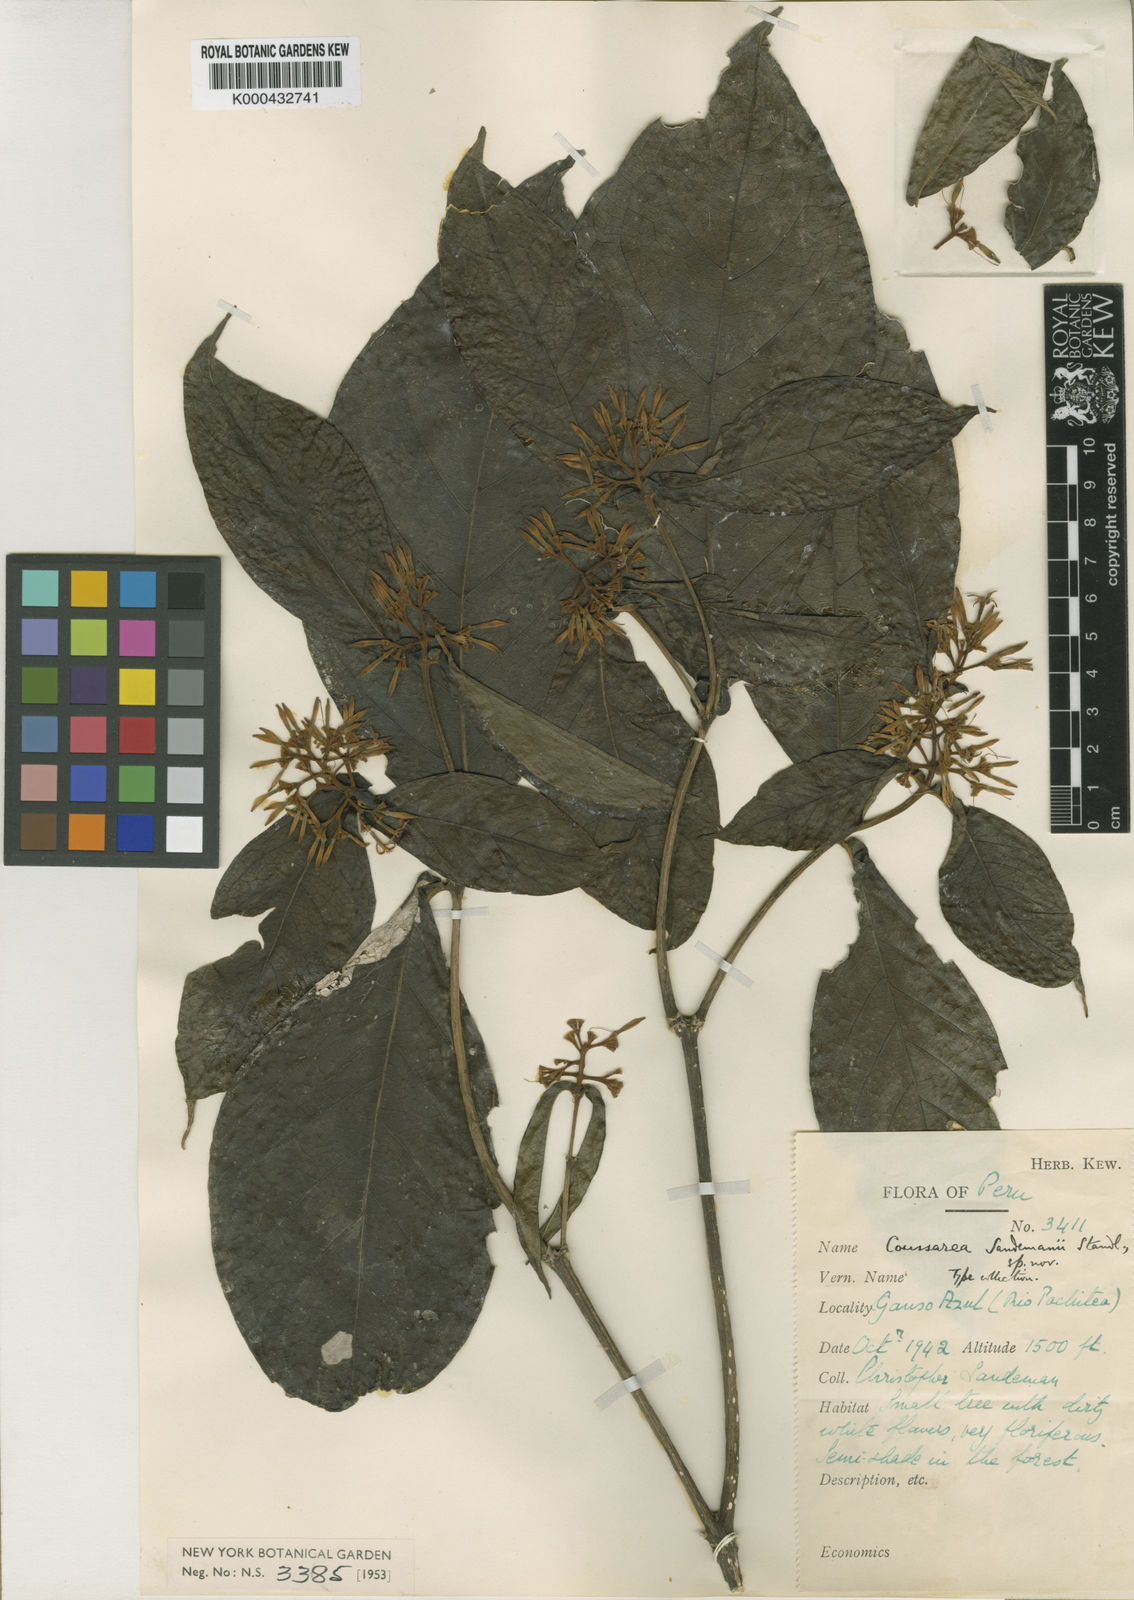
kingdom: Plantae
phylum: Tracheophyta
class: Magnoliopsida
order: Gentianales
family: Rubiaceae
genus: Coussarea
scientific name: Coussarea
